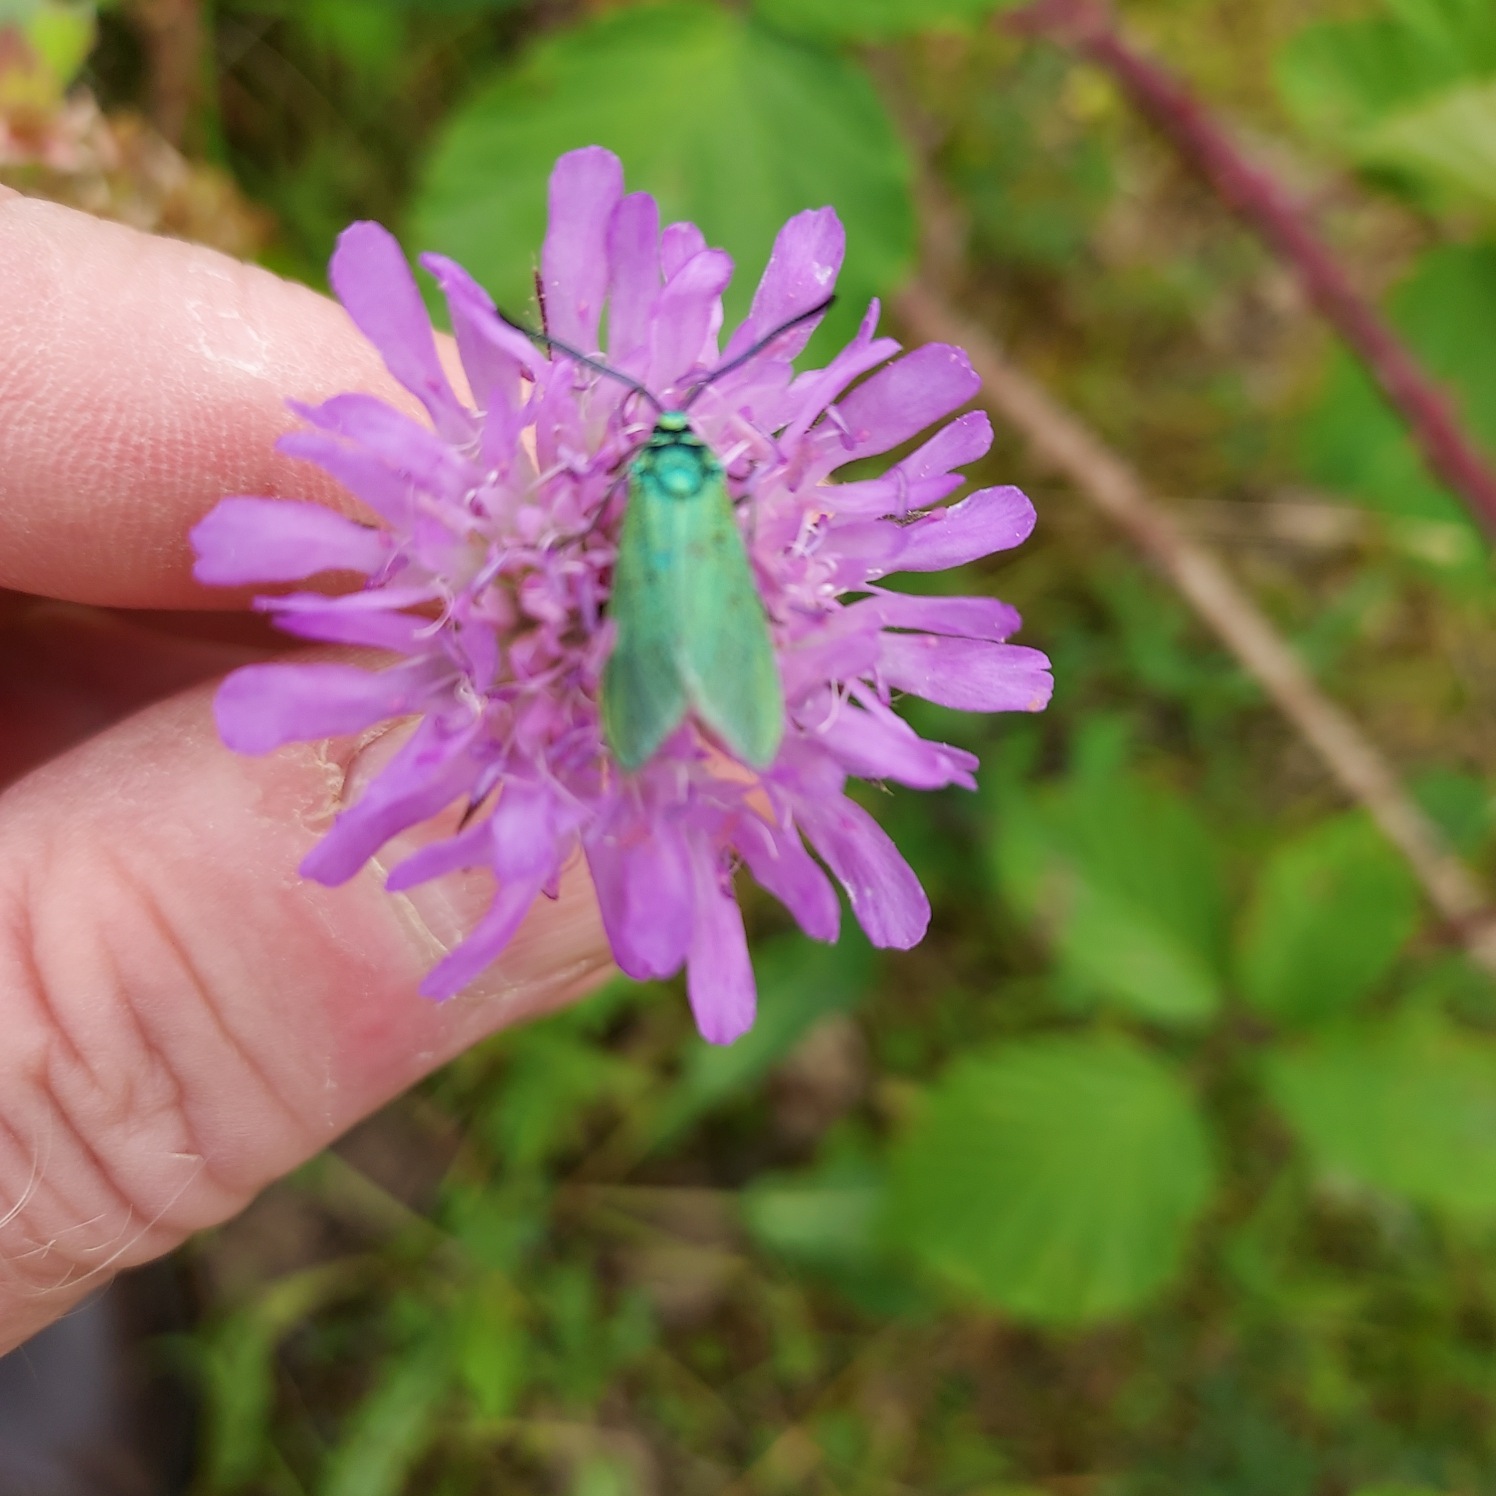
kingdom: Animalia
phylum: Arthropoda
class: Insecta
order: Lepidoptera
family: Zygaenidae
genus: Adscita
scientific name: Adscita statices
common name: Metalvinge
